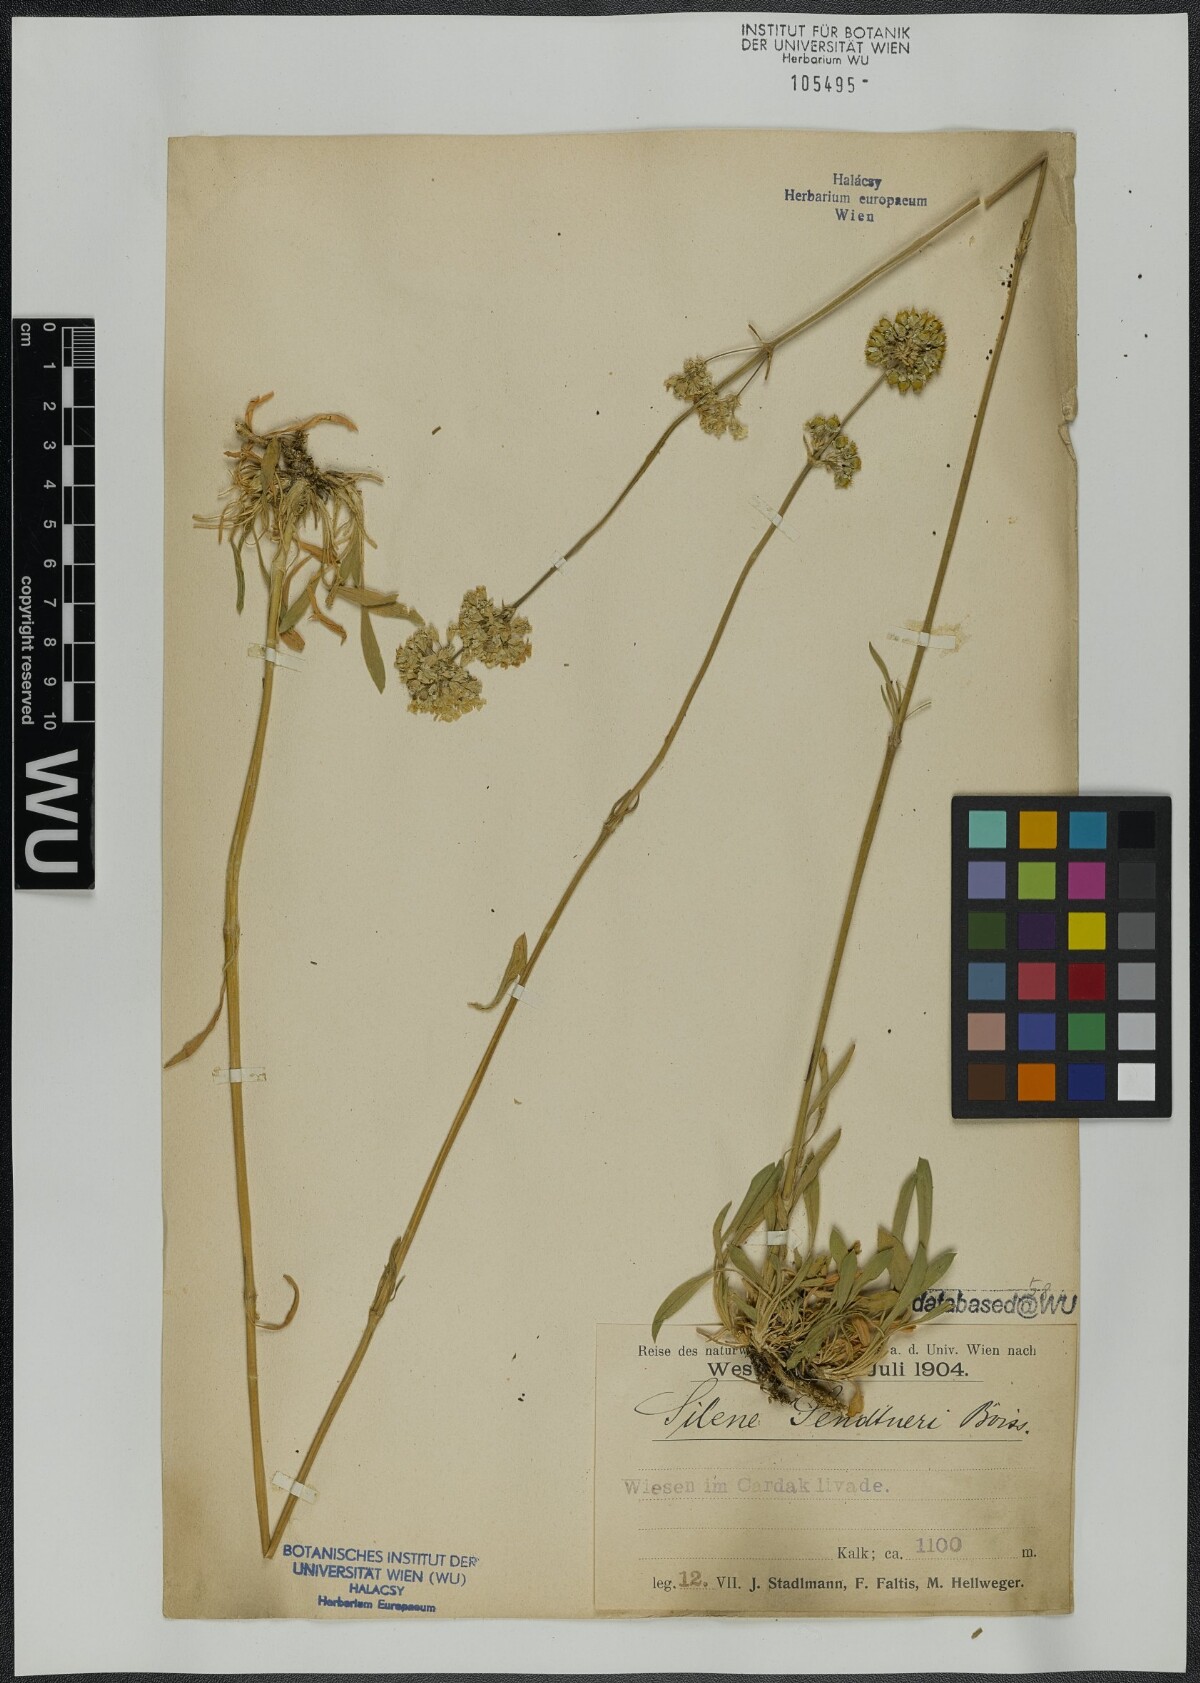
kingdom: Plantae
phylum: Tracheophyta
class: Magnoliopsida
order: Caryophyllales
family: Caryophyllaceae
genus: Silene
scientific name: Silene sendtneri
